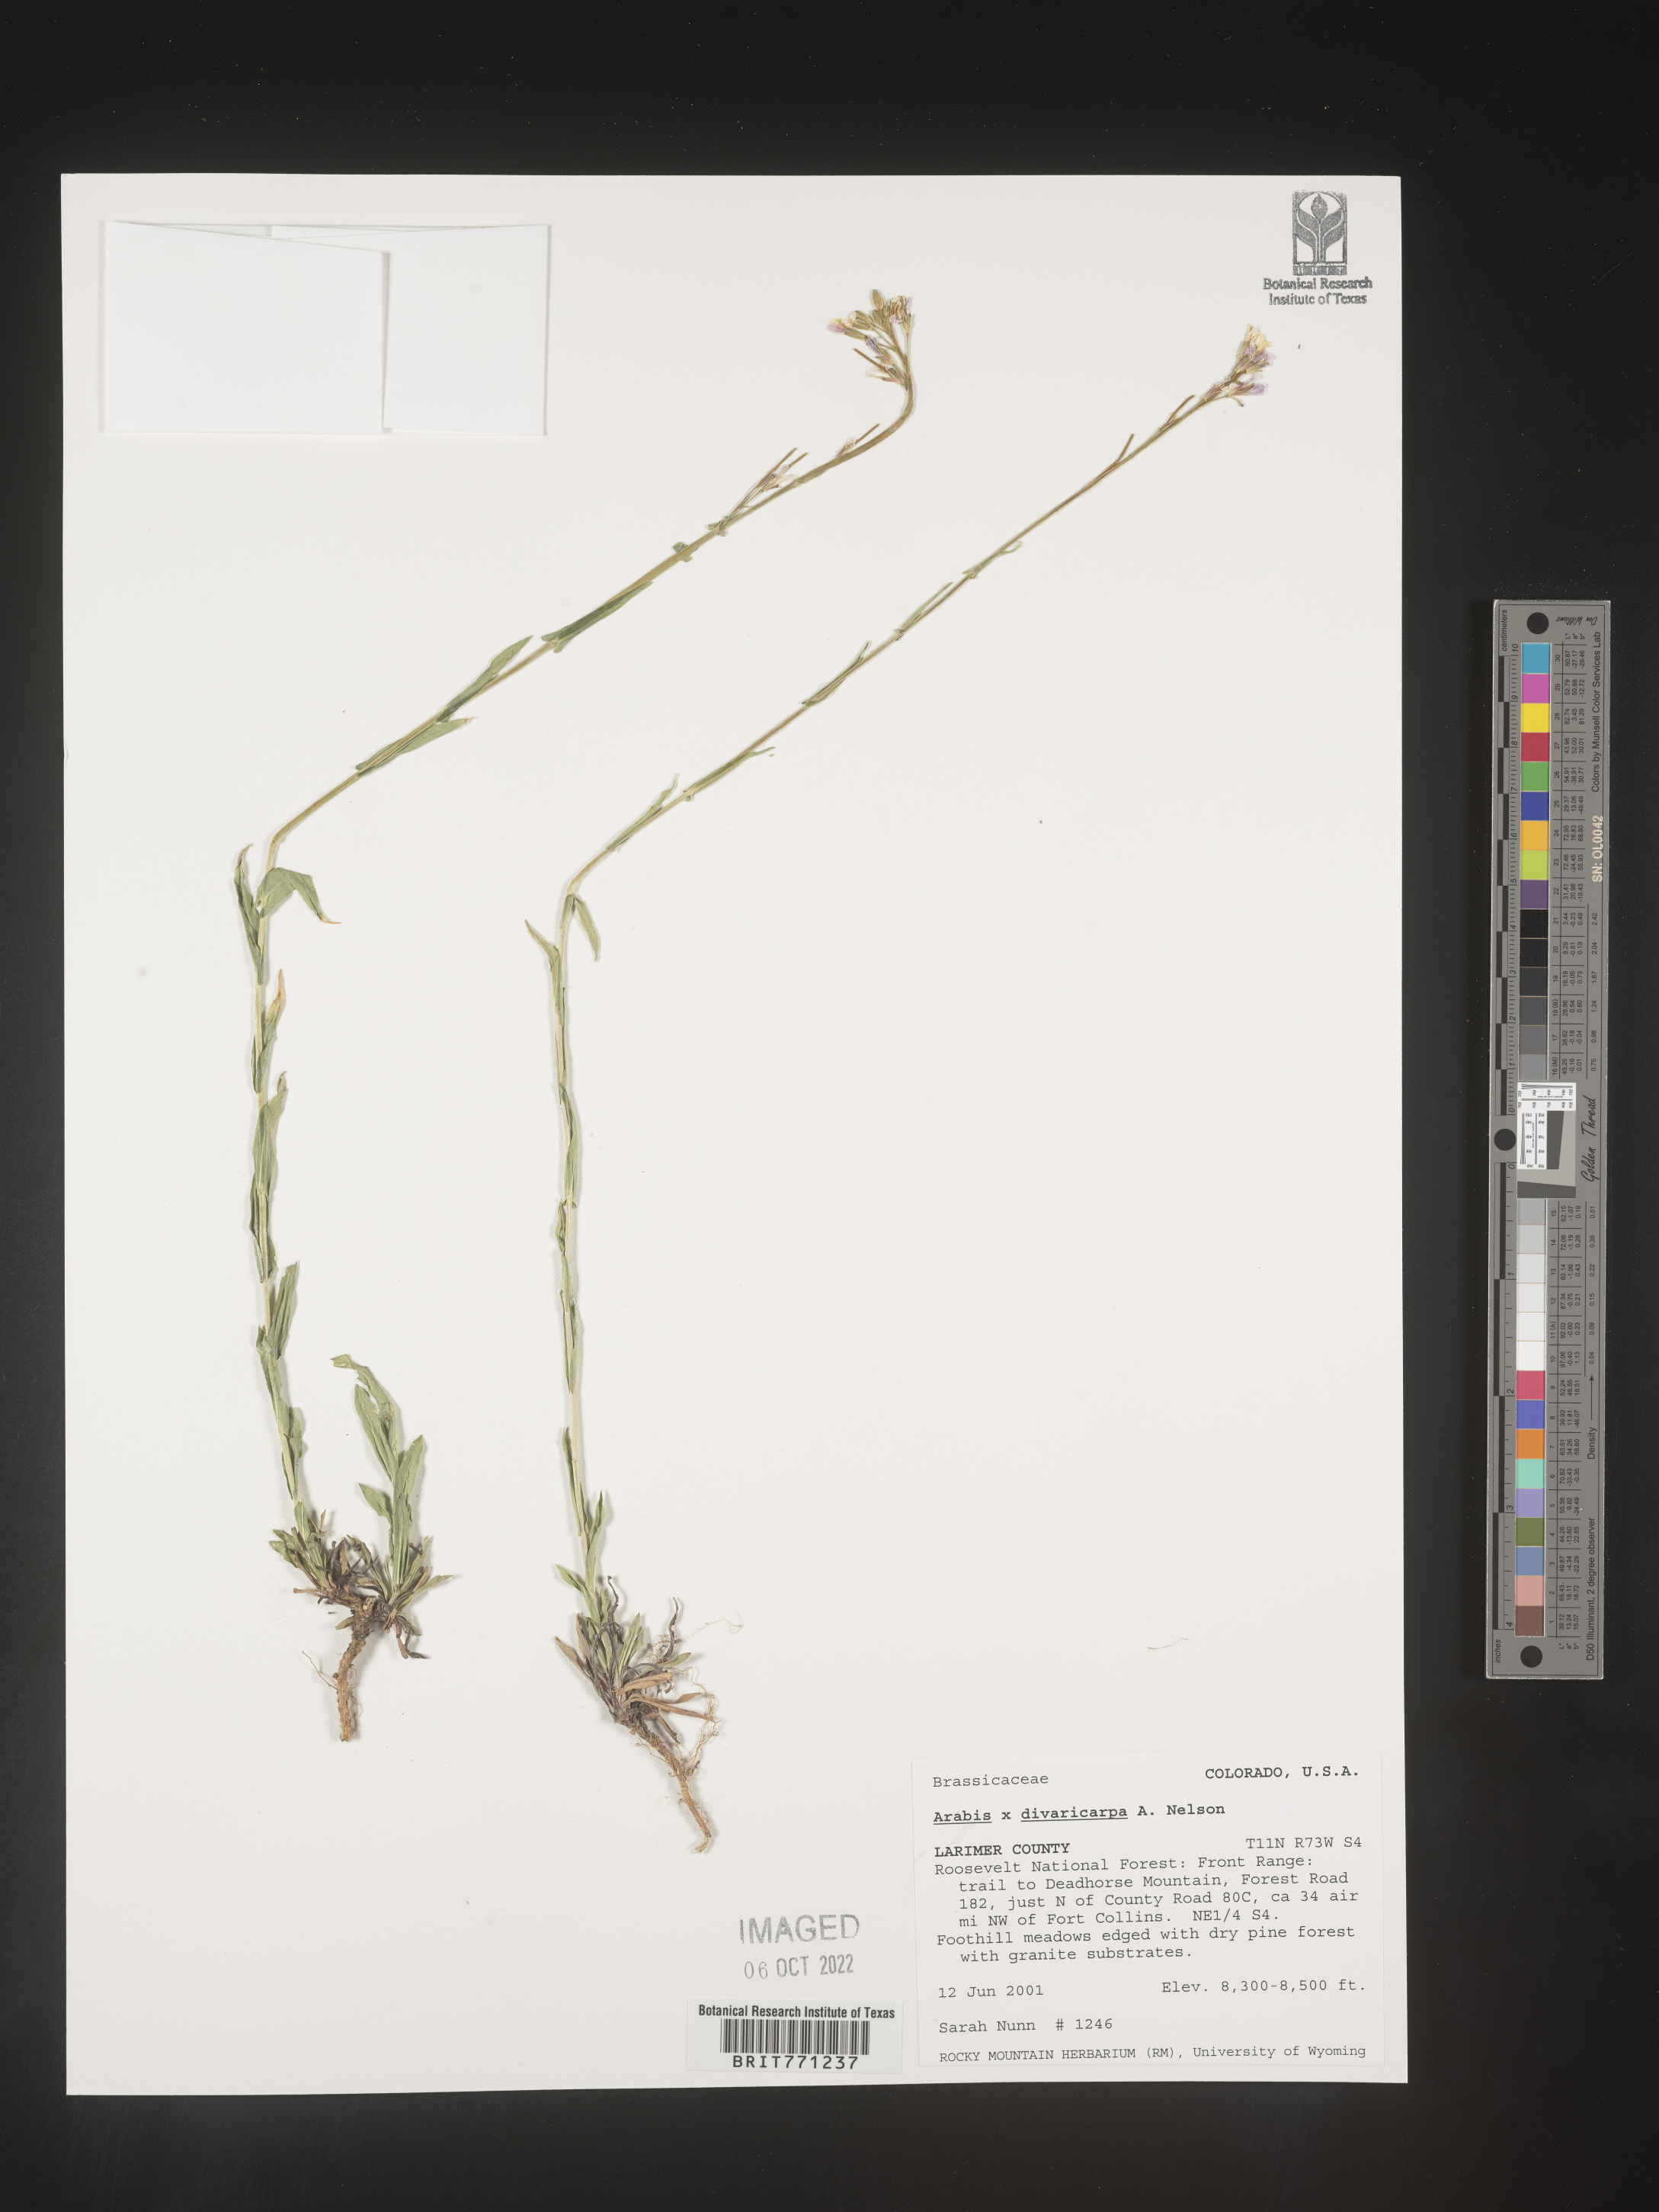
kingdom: Plantae
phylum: Tracheophyta
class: Magnoliopsida
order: Brassicales
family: Brassicaceae
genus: Boechera
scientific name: Boechera divaricarpa
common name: Divaricate rockcress
